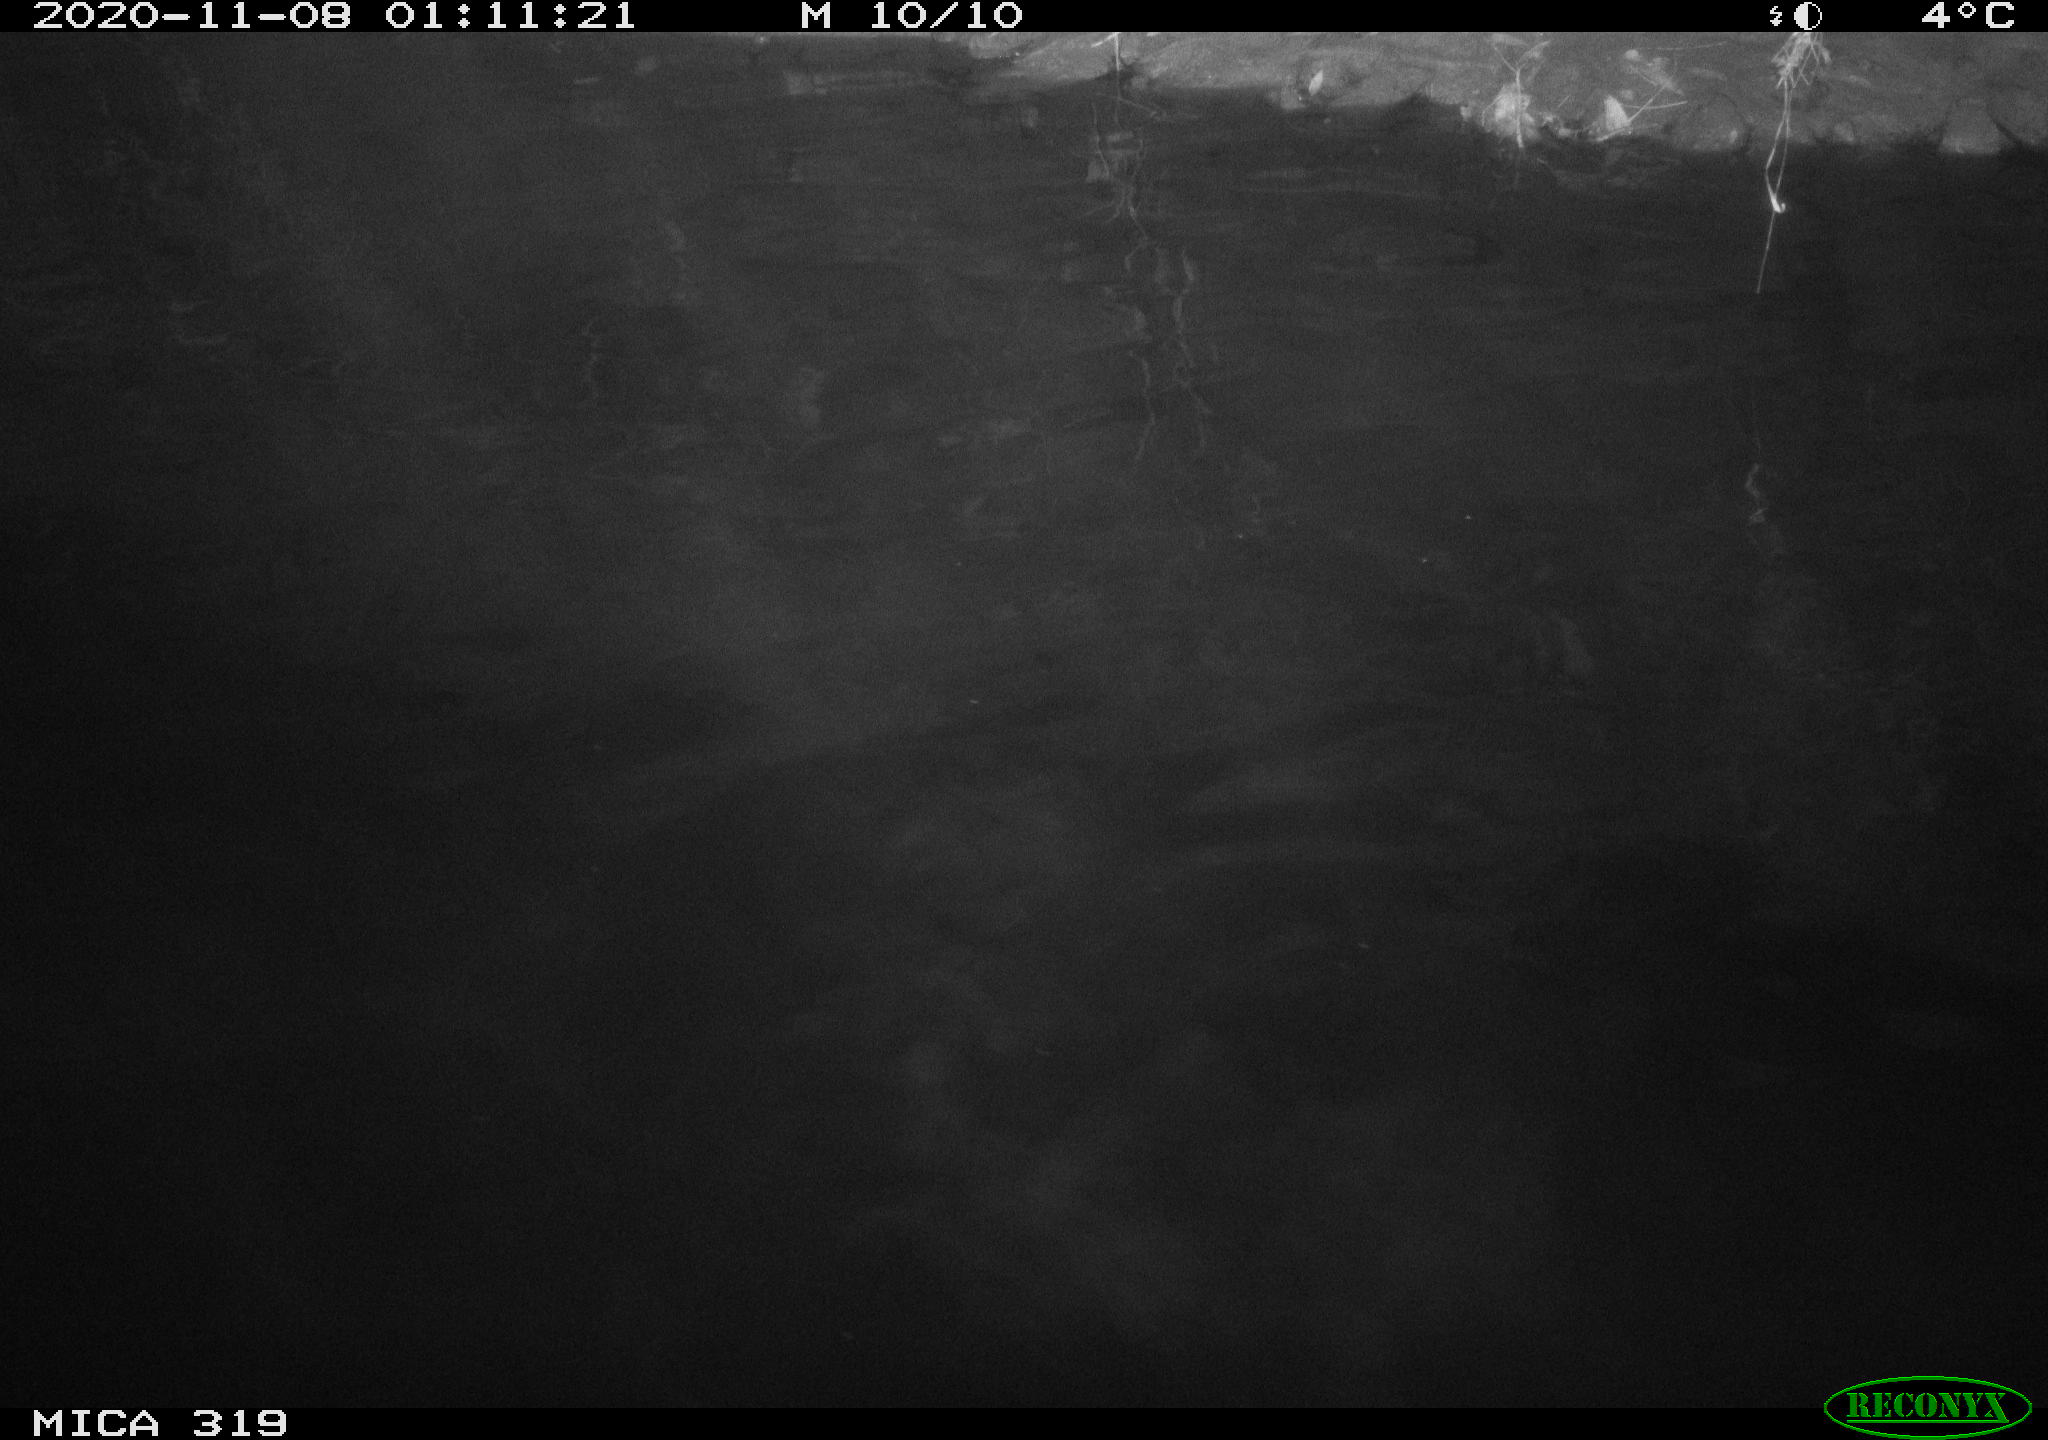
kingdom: Animalia
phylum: Chordata
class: Aves
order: Anseriformes
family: Anatidae
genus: Anas
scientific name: Anas platyrhynchos
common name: Mallard
